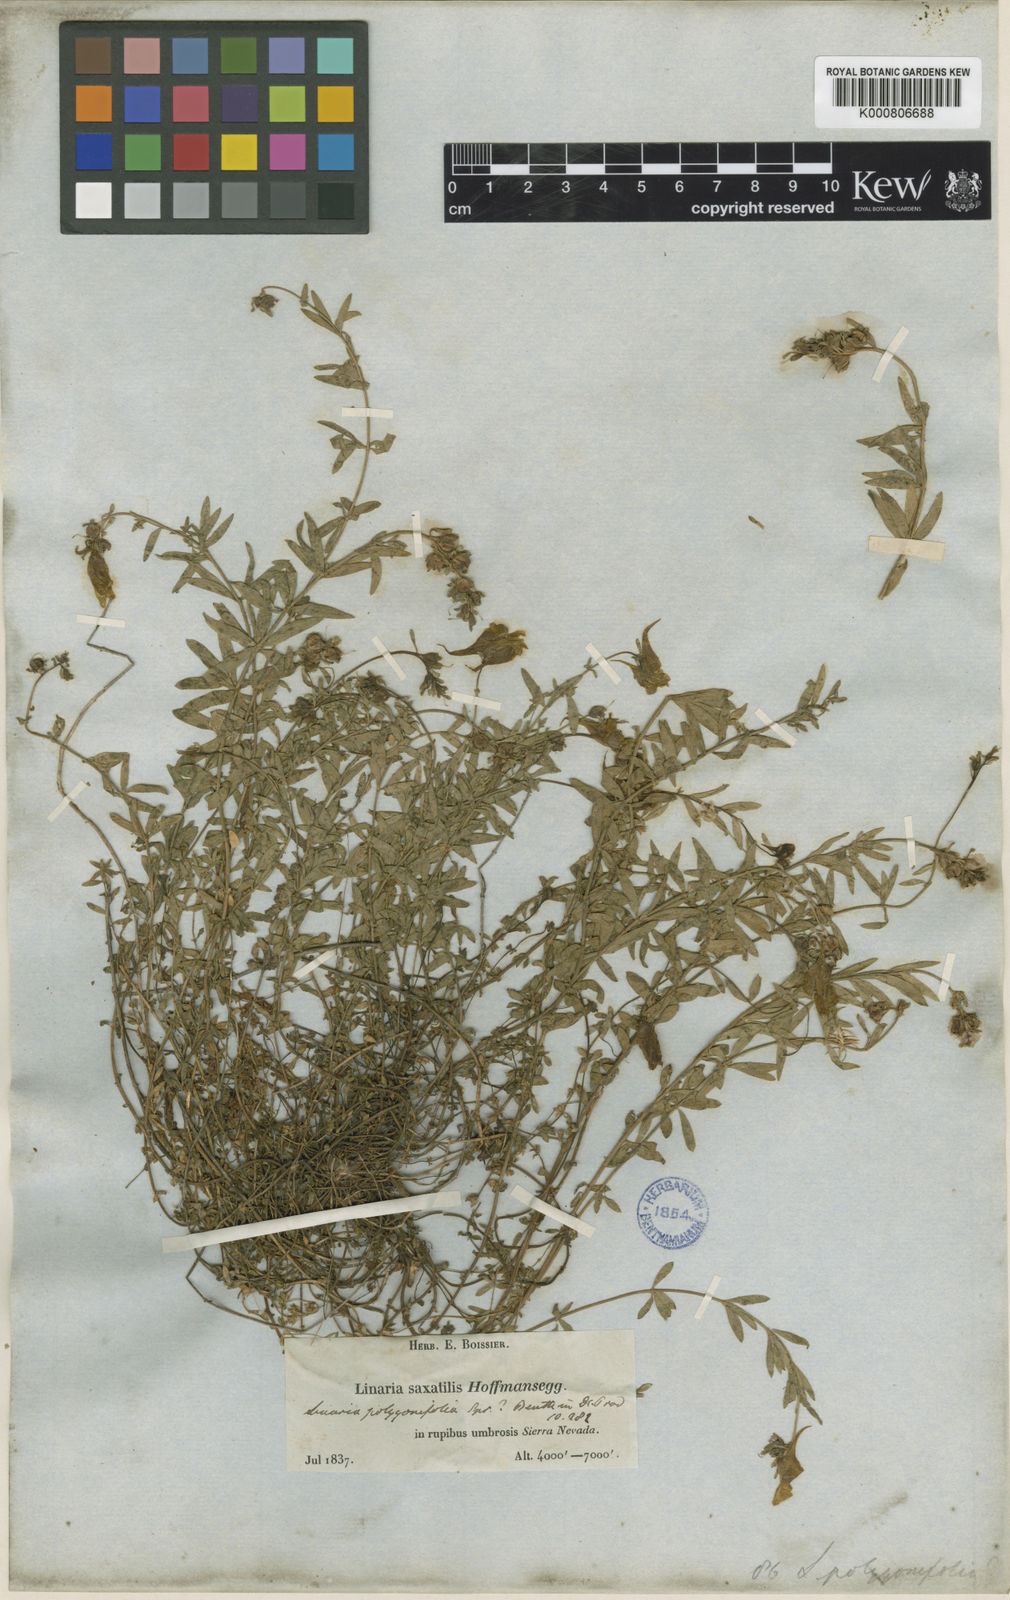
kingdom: Plantae
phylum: Tracheophyta
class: Magnoliopsida
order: Lamiales
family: Plantaginaceae
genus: Linaria
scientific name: Linaria verticillata
